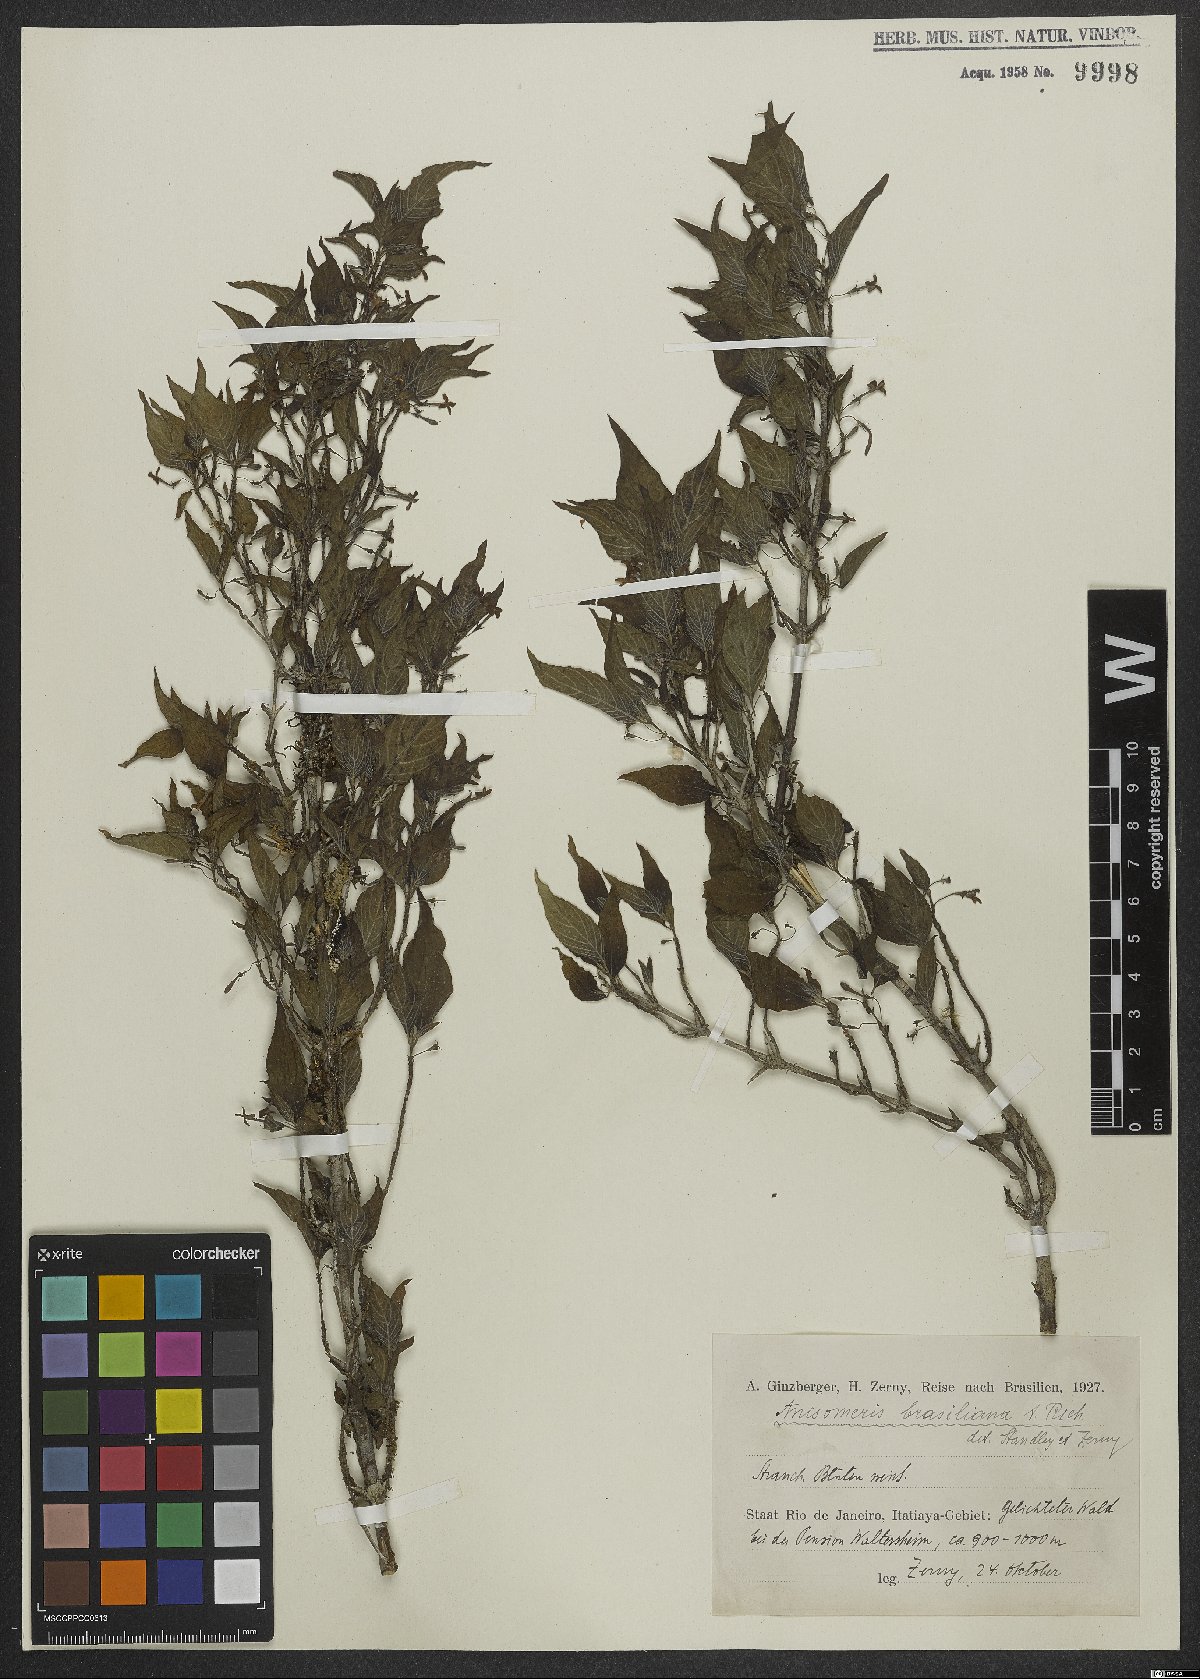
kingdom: Plantae
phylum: Tracheophyta
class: Magnoliopsida
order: Gentianales
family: Rubiaceae
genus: Chomelia
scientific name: Chomelia brasiliana
